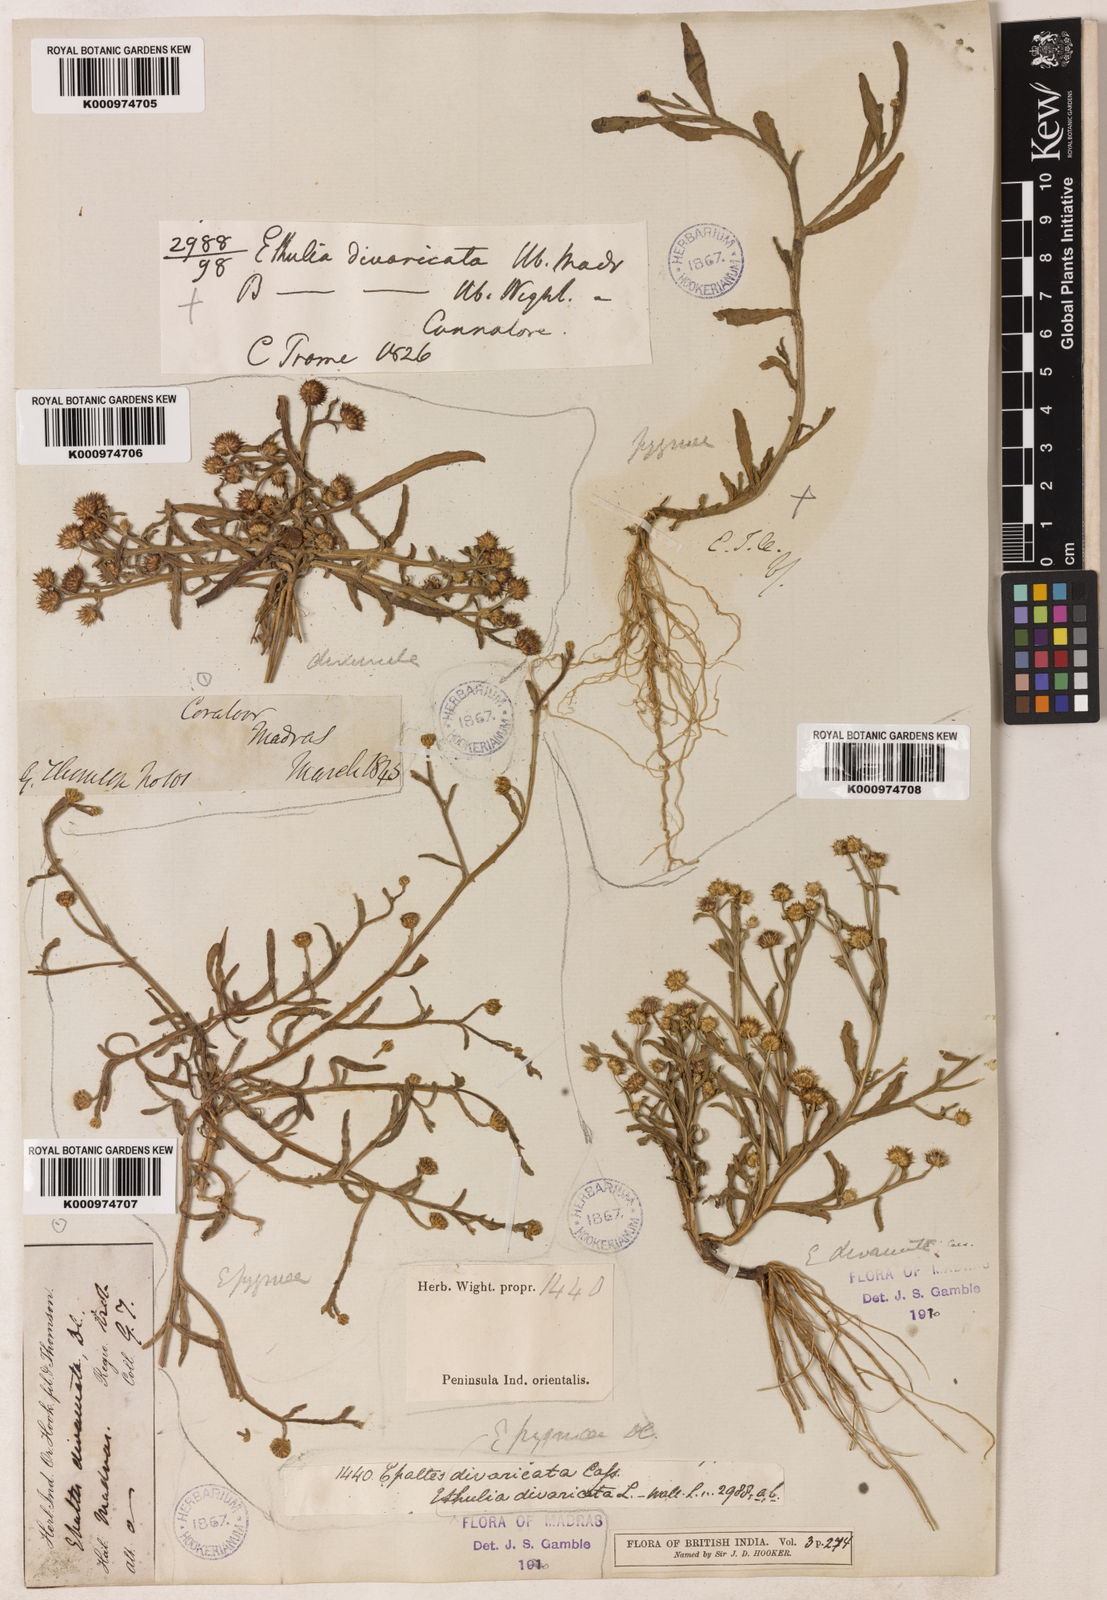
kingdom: Plantae
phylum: Tracheophyta
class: Magnoliopsida
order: Asterales
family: Asteraceae
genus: Epaltes
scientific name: Epaltes pygmaea
